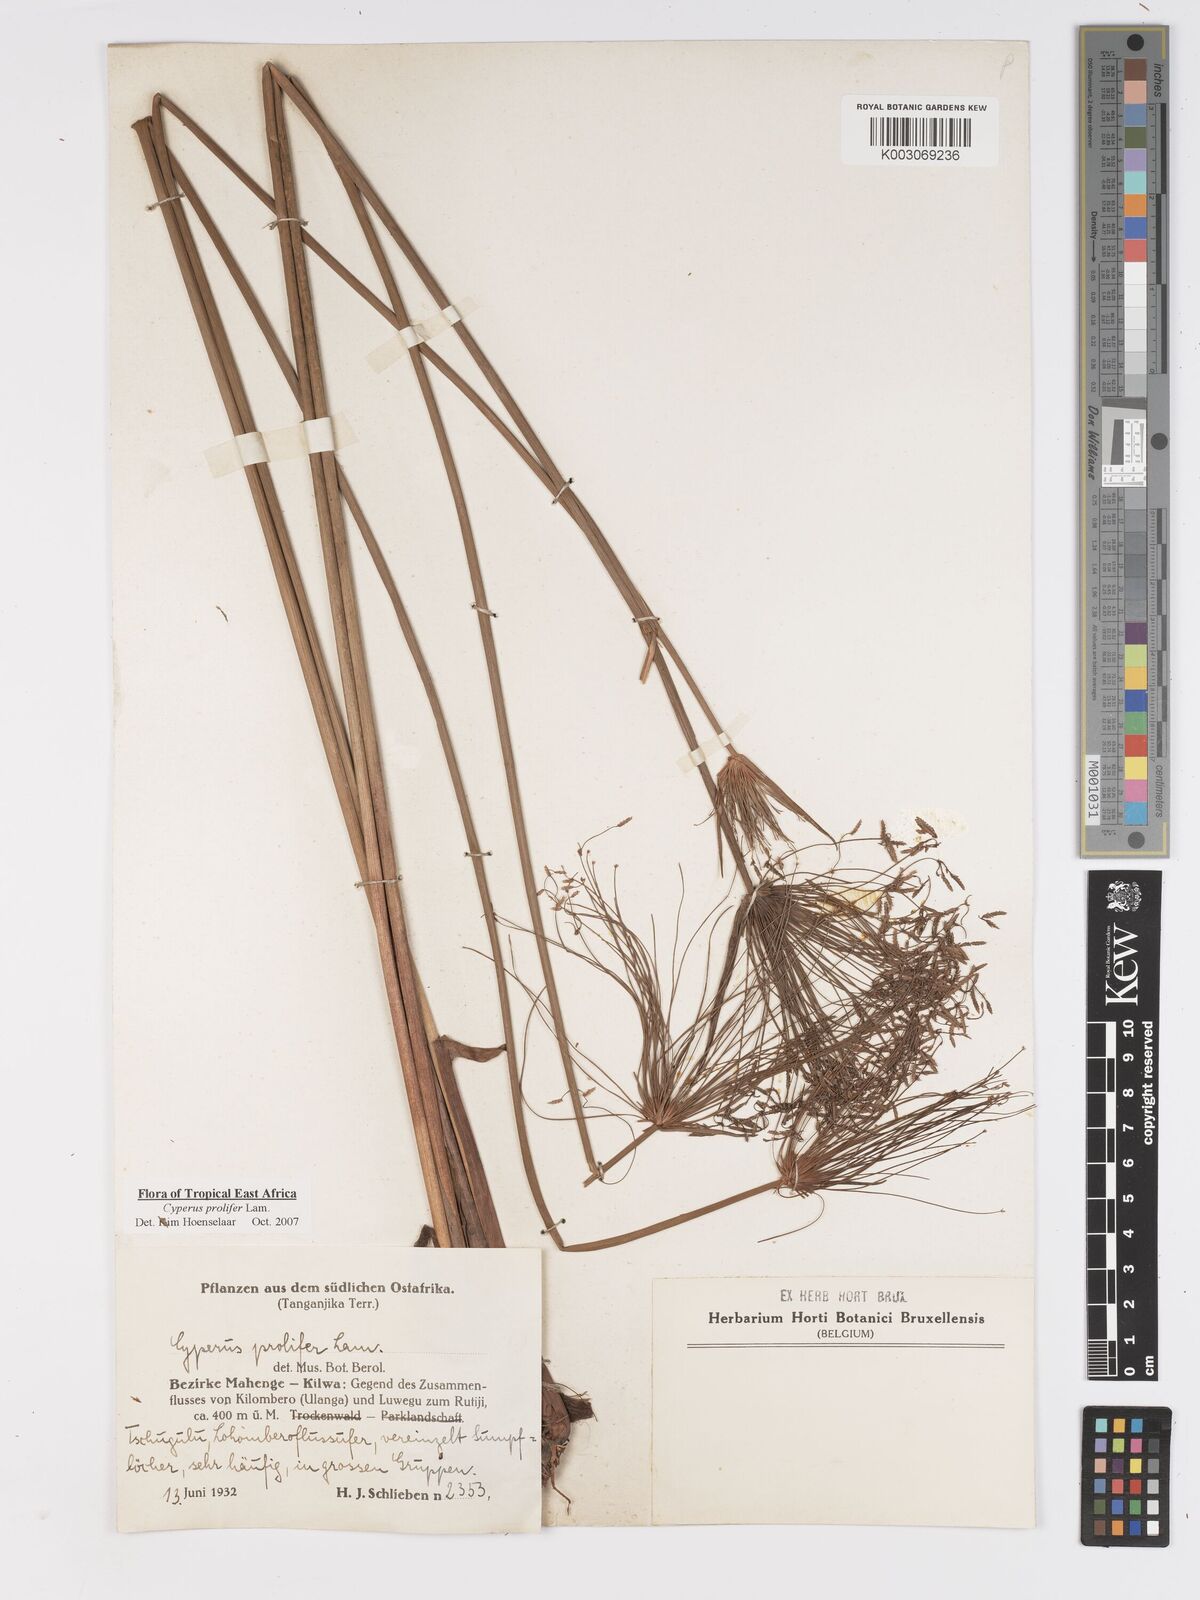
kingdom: Plantae
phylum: Tracheophyta
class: Liliopsida
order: Poales
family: Cyperaceae
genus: Cyperus
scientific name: Cyperus prolifer
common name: Miniature flatsedge
